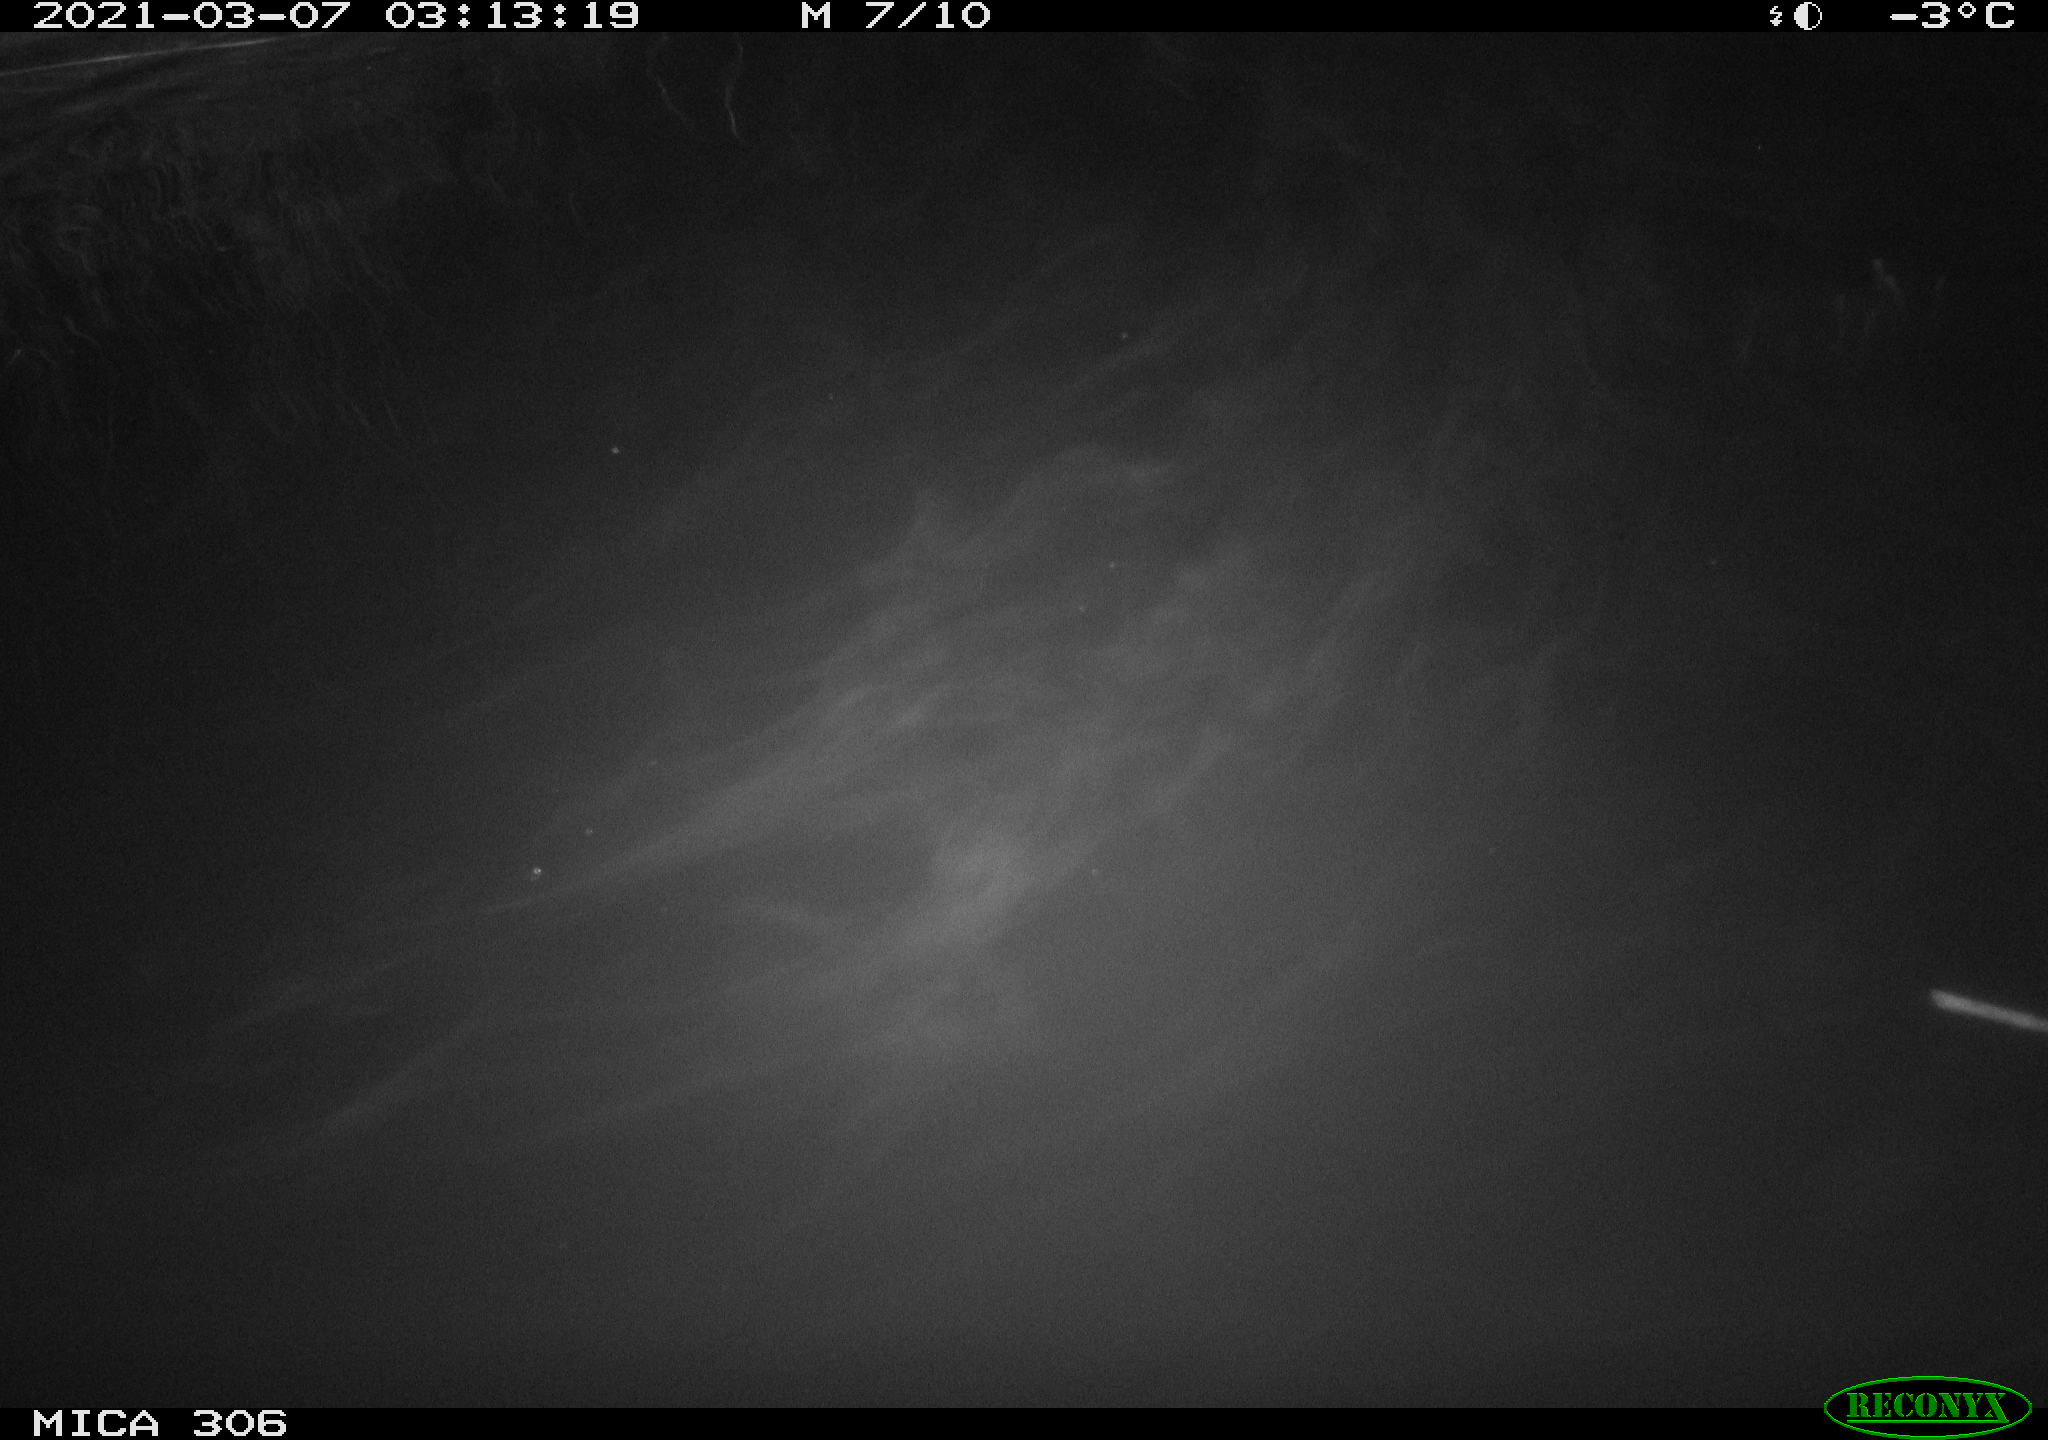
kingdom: Animalia
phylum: Chordata
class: Mammalia
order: Rodentia
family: Cricetidae
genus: Ondatra
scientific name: Ondatra zibethicus
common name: Muskrat
